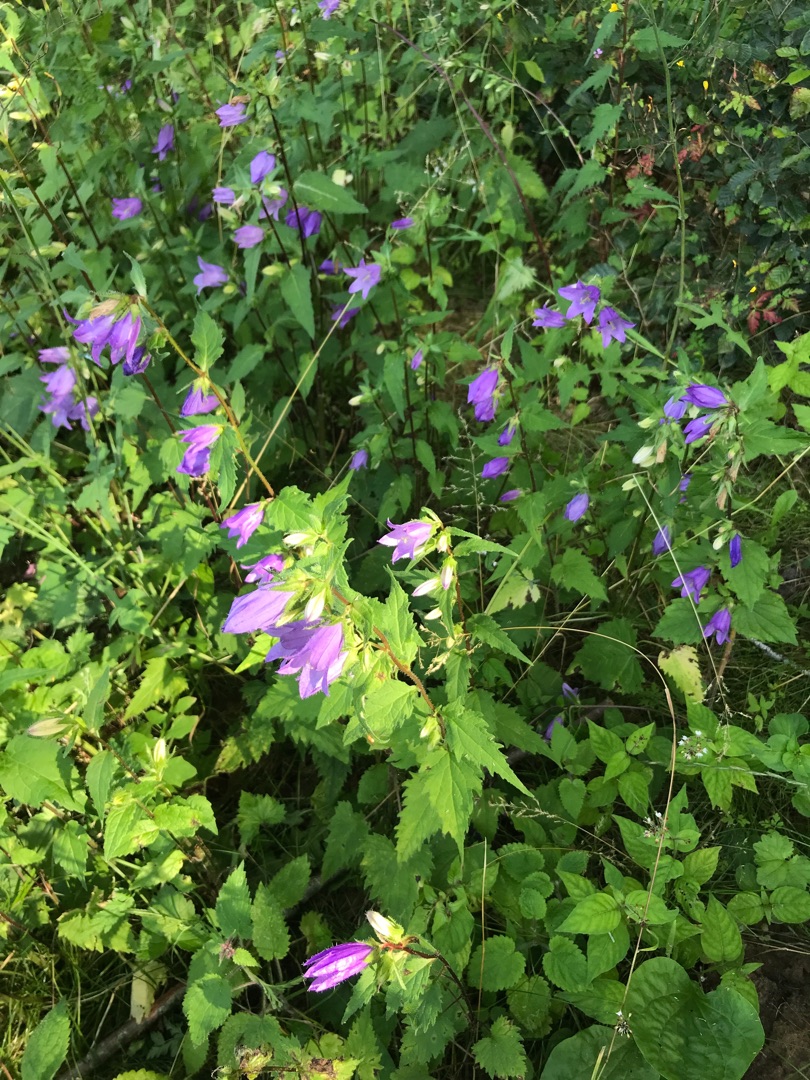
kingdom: Plantae
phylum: Tracheophyta
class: Magnoliopsida
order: Asterales
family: Campanulaceae
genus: Campanula
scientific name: Campanula trachelium
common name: Nælde-klokke
